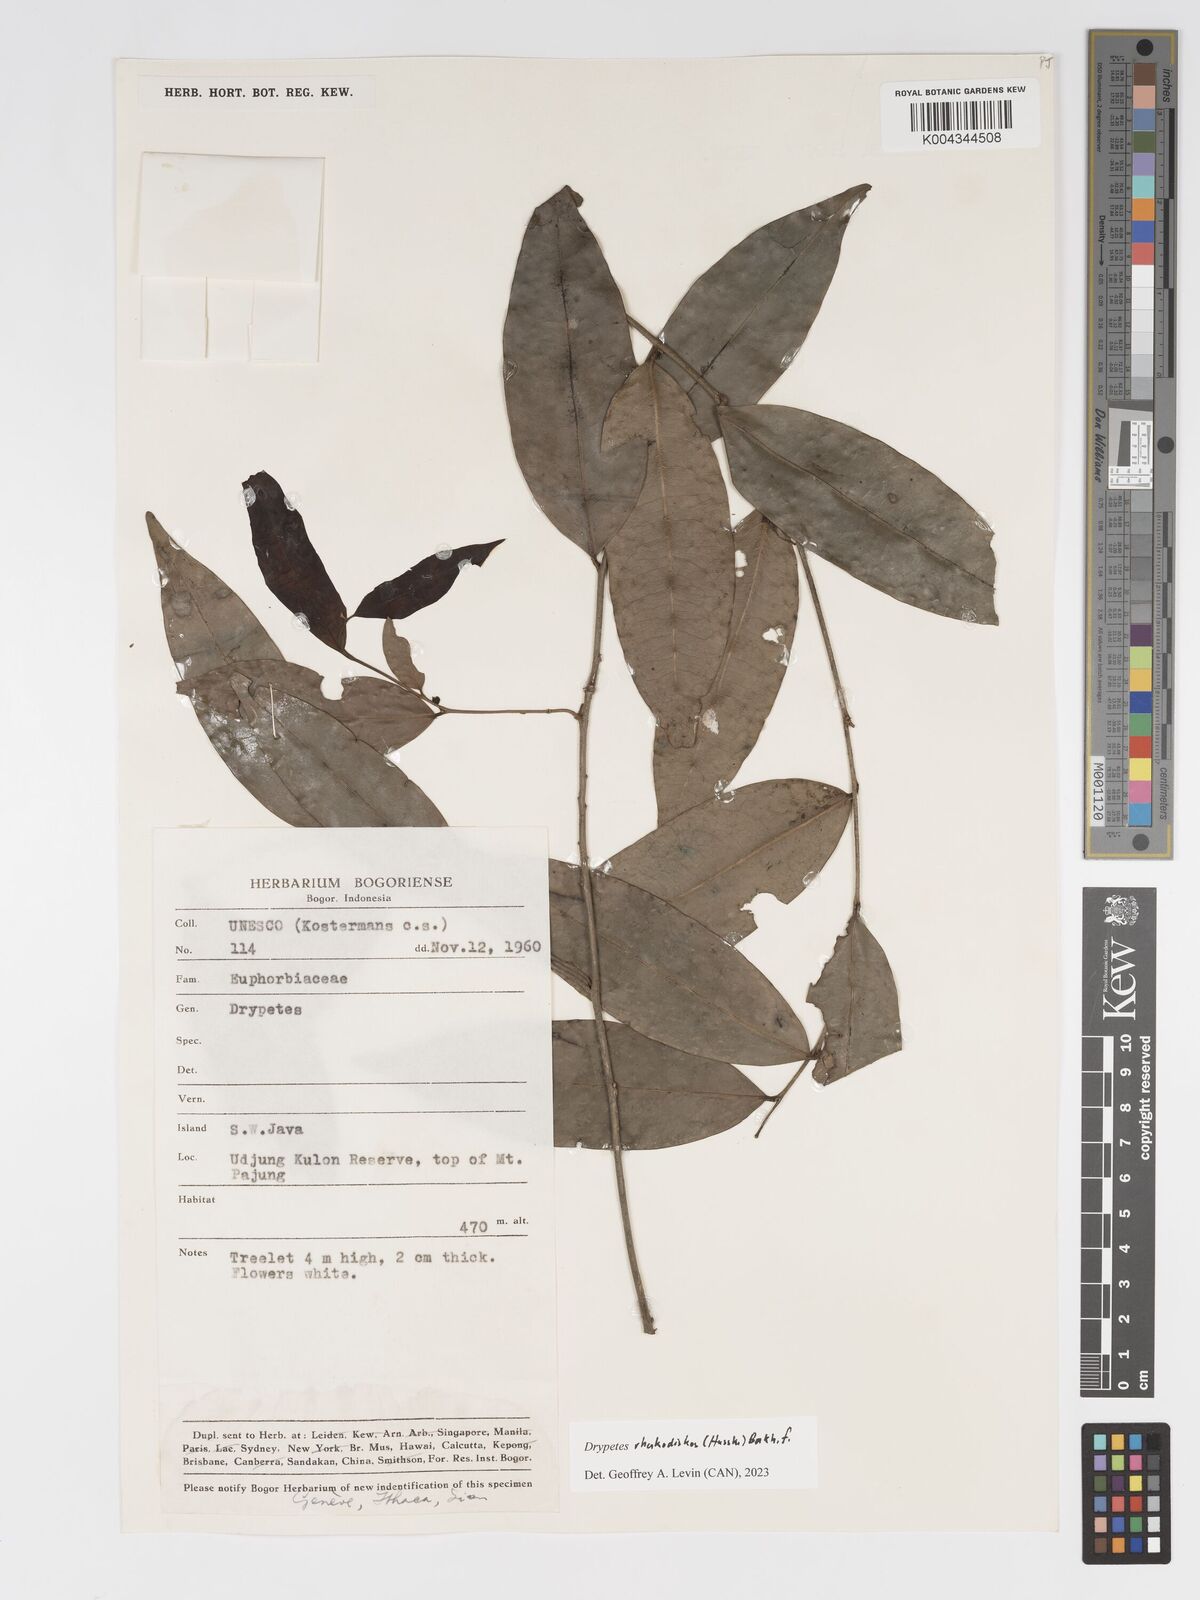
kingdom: Plantae
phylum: Tracheophyta
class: Magnoliopsida
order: Malpighiales
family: Putranjivaceae
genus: Drypetes
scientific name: Drypetes rhakodiskos
